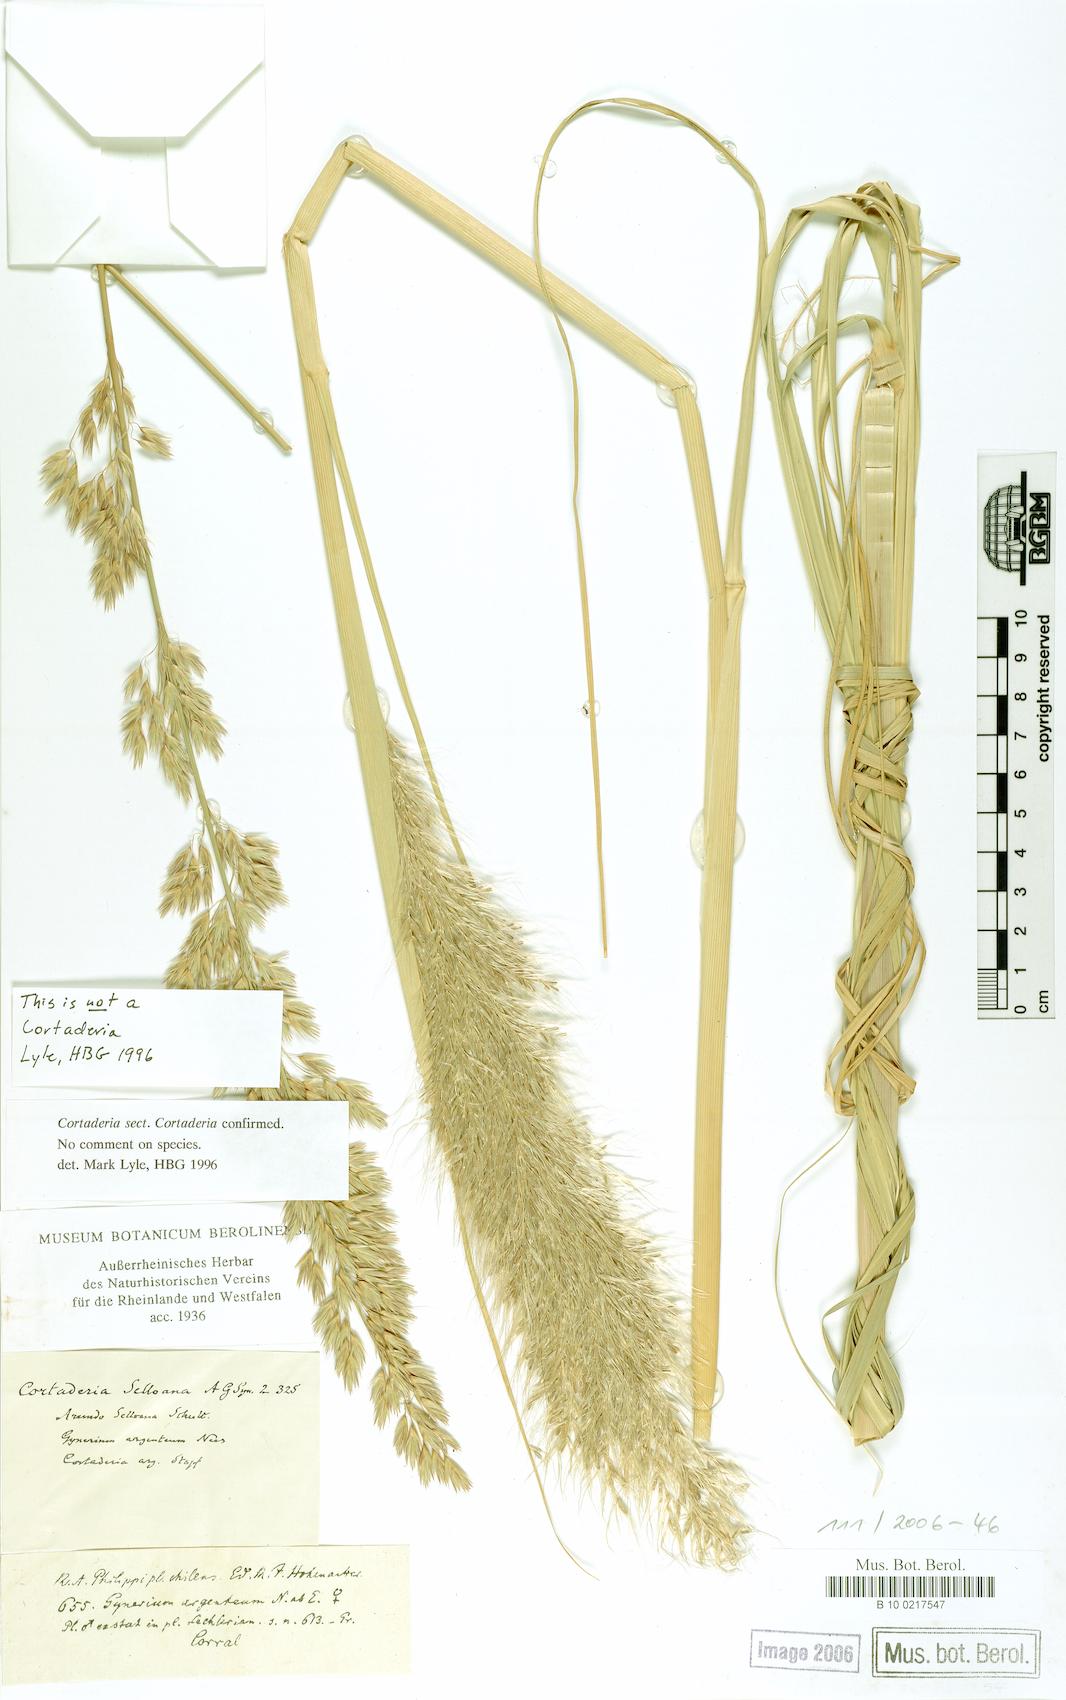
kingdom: Plantae
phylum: Tracheophyta
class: Liliopsida
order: Poales
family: Poaceae
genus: Cortaderia
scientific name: Cortaderia selloana
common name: Uruguayan pampas grass
